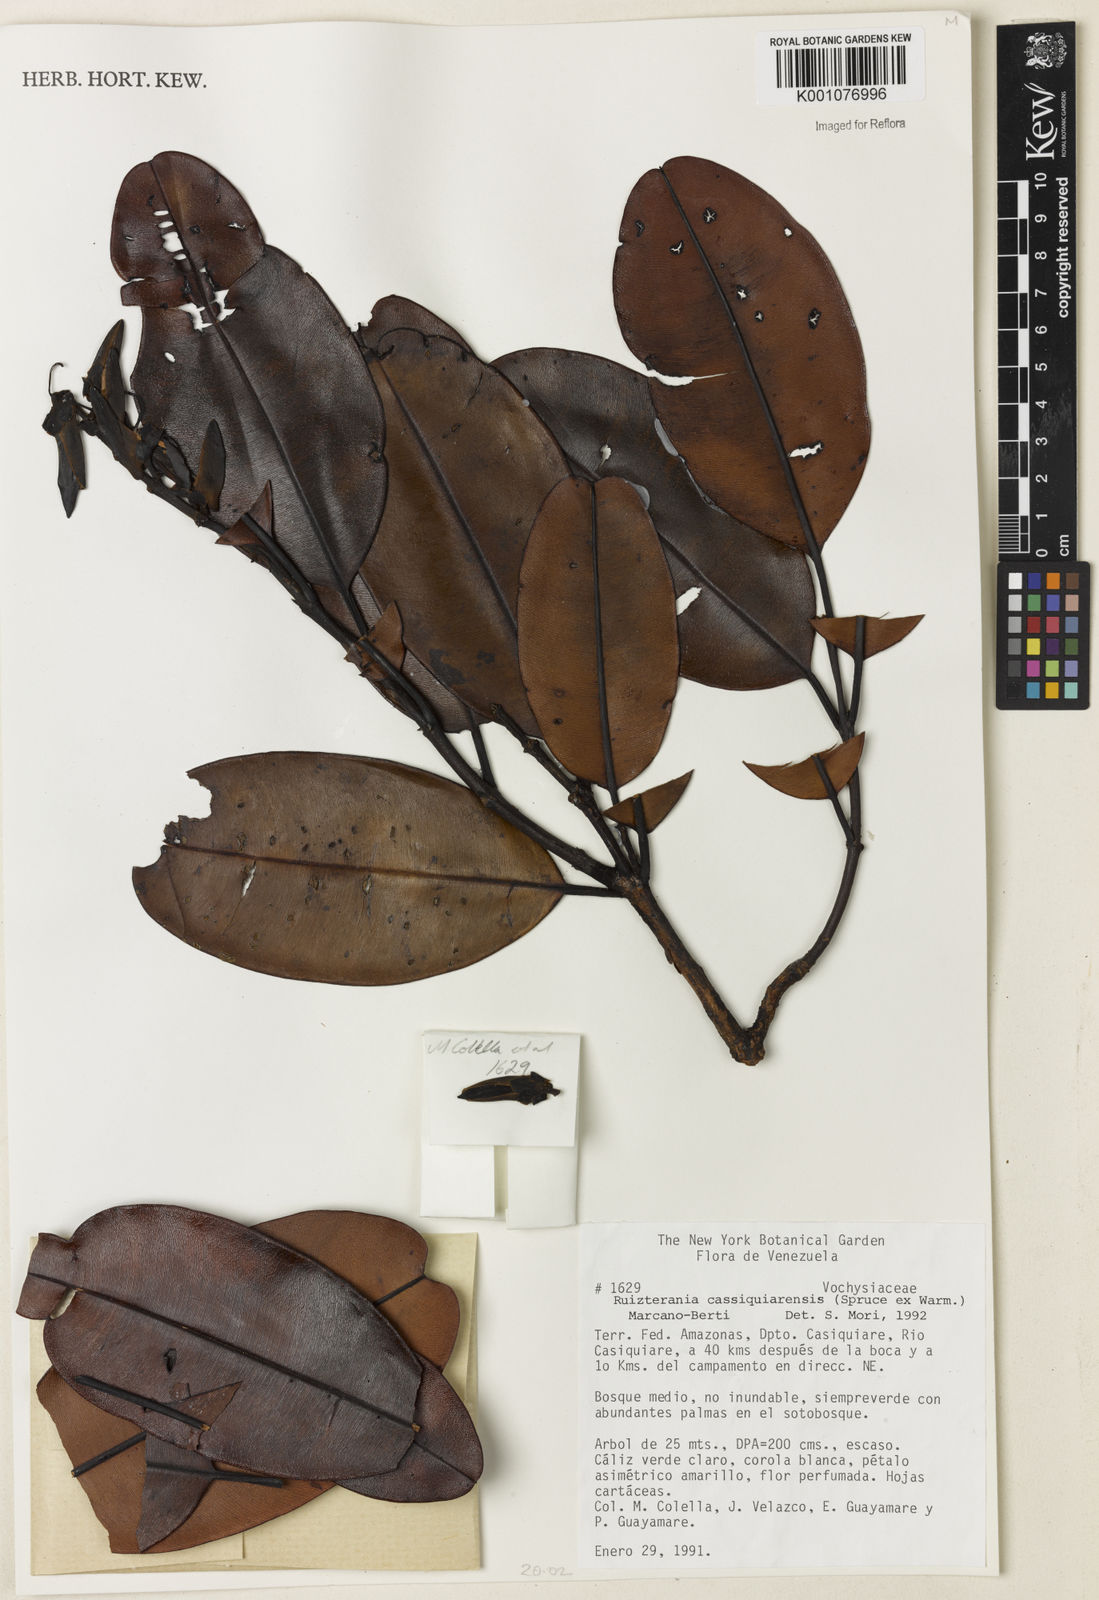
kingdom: Plantae
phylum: Tracheophyta
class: Magnoliopsida
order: Myrtales
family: Vochysiaceae
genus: Ruizterania
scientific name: Ruizterania cassiquiarensis
